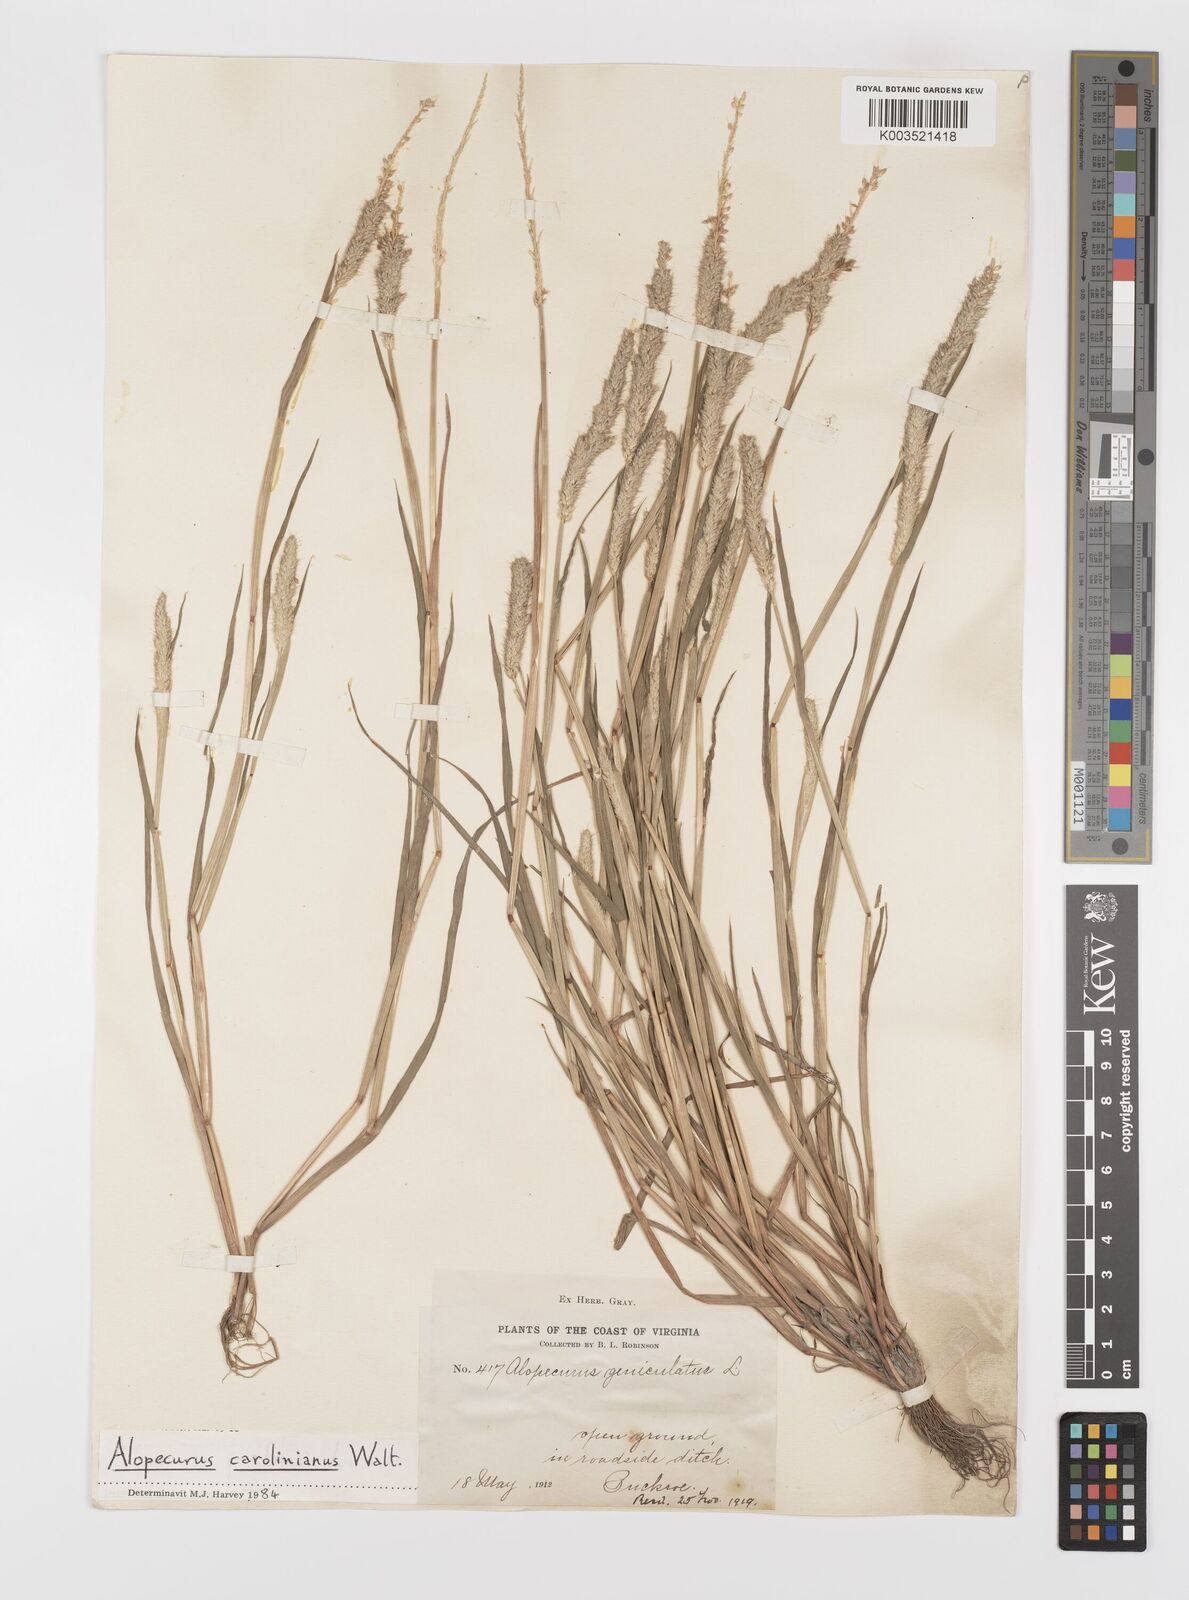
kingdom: Plantae
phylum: Tracheophyta
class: Liliopsida
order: Poales
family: Poaceae
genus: Alopecurus
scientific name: Alopecurus carolinianus
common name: Tufted foxtail
